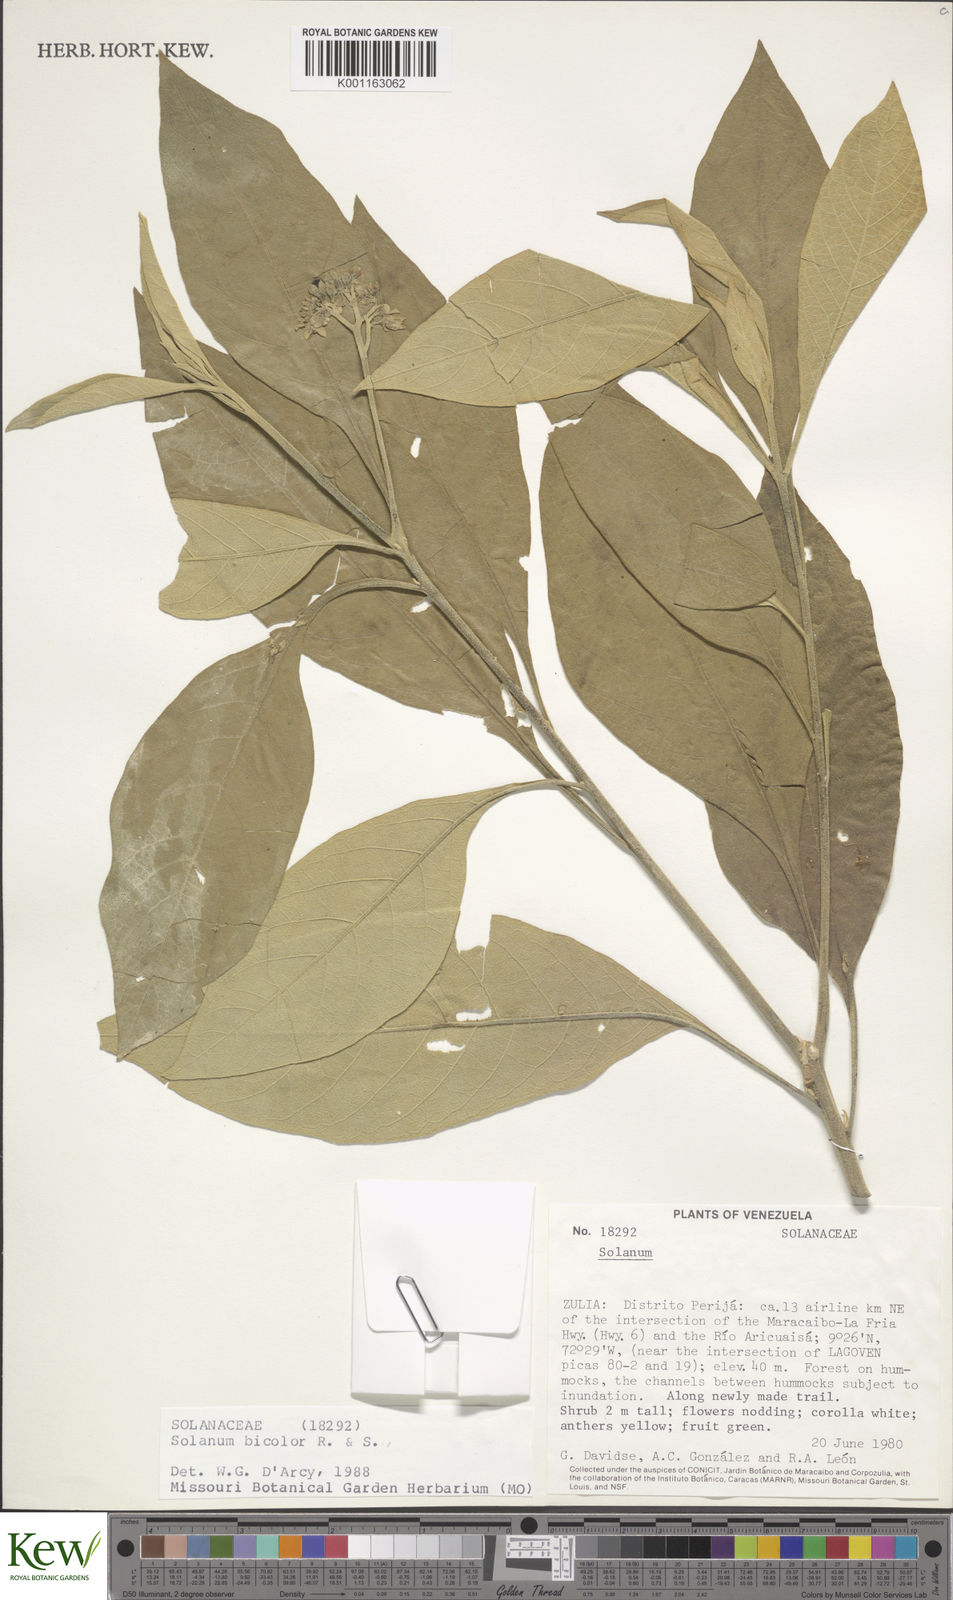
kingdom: Plantae
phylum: Tracheophyta
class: Magnoliopsida
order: Solanales
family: Solanaceae
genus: Solanum
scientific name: Solanum bicolor
